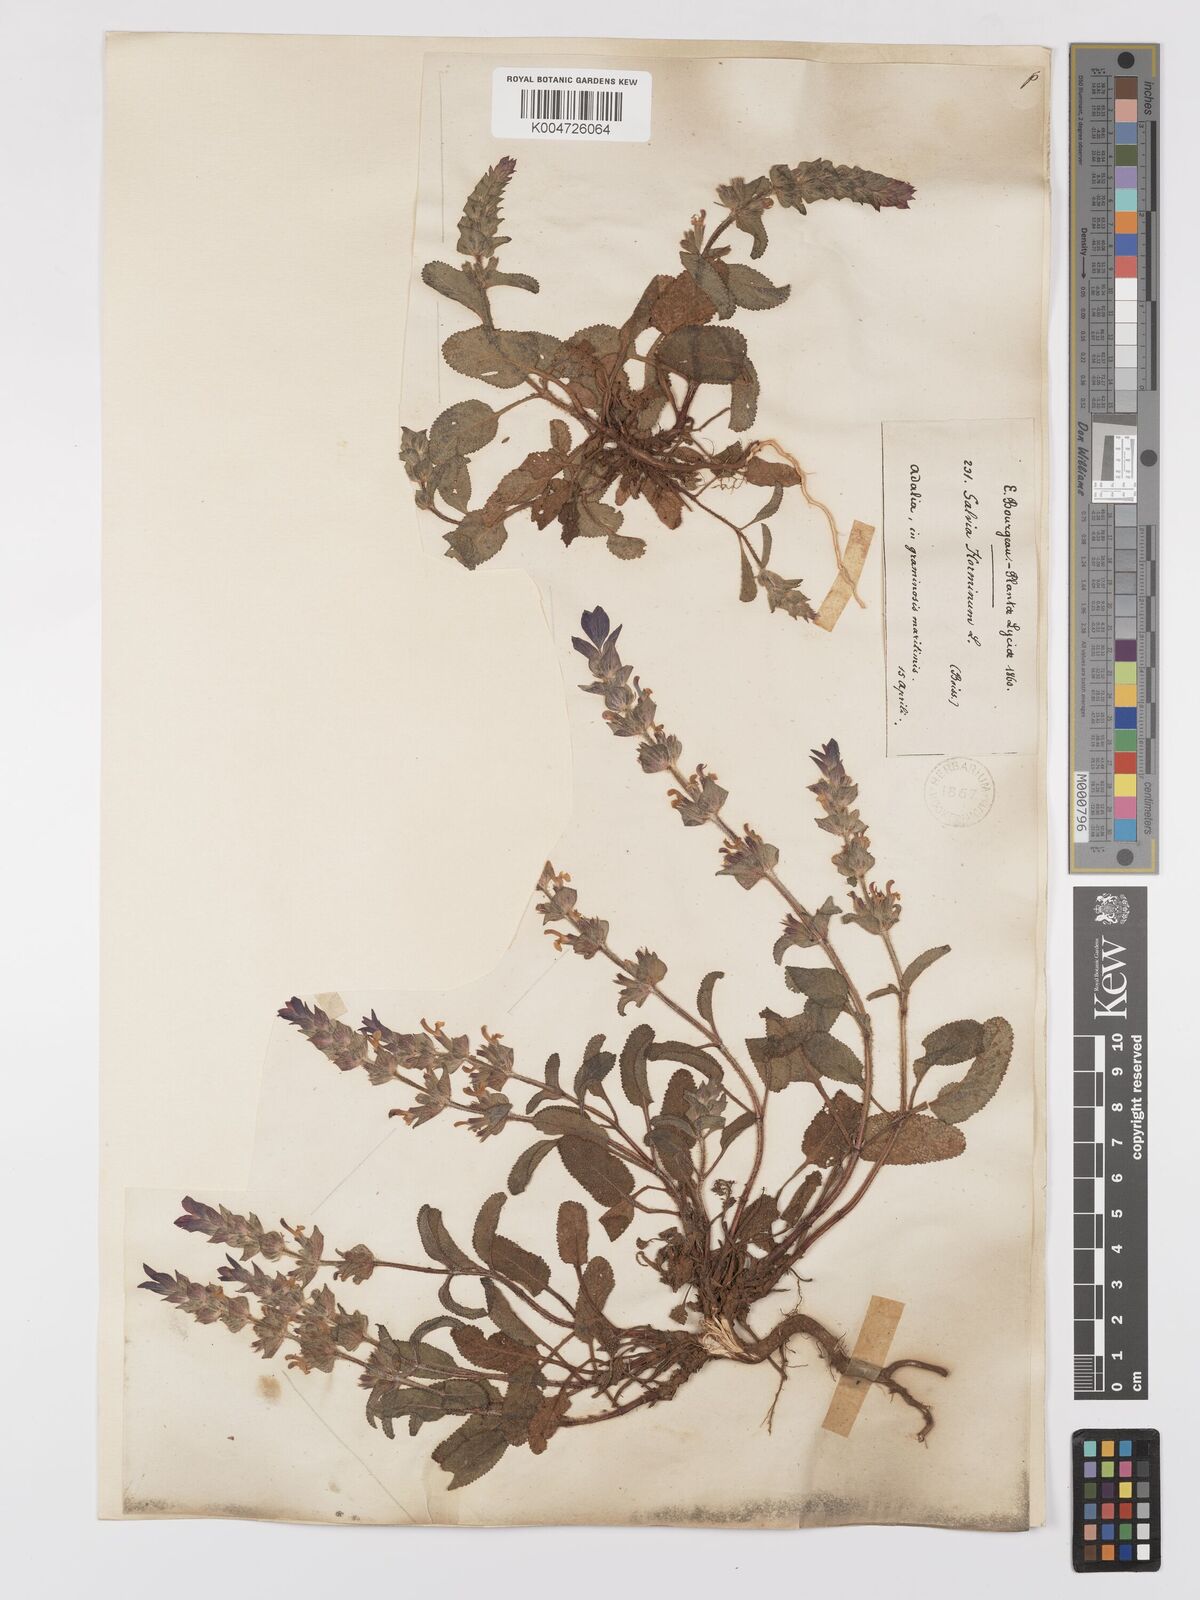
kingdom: Plantae
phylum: Tracheophyta
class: Magnoliopsida
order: Lamiales
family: Lamiaceae
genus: Salvia
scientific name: Salvia viridis
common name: Annual clary
